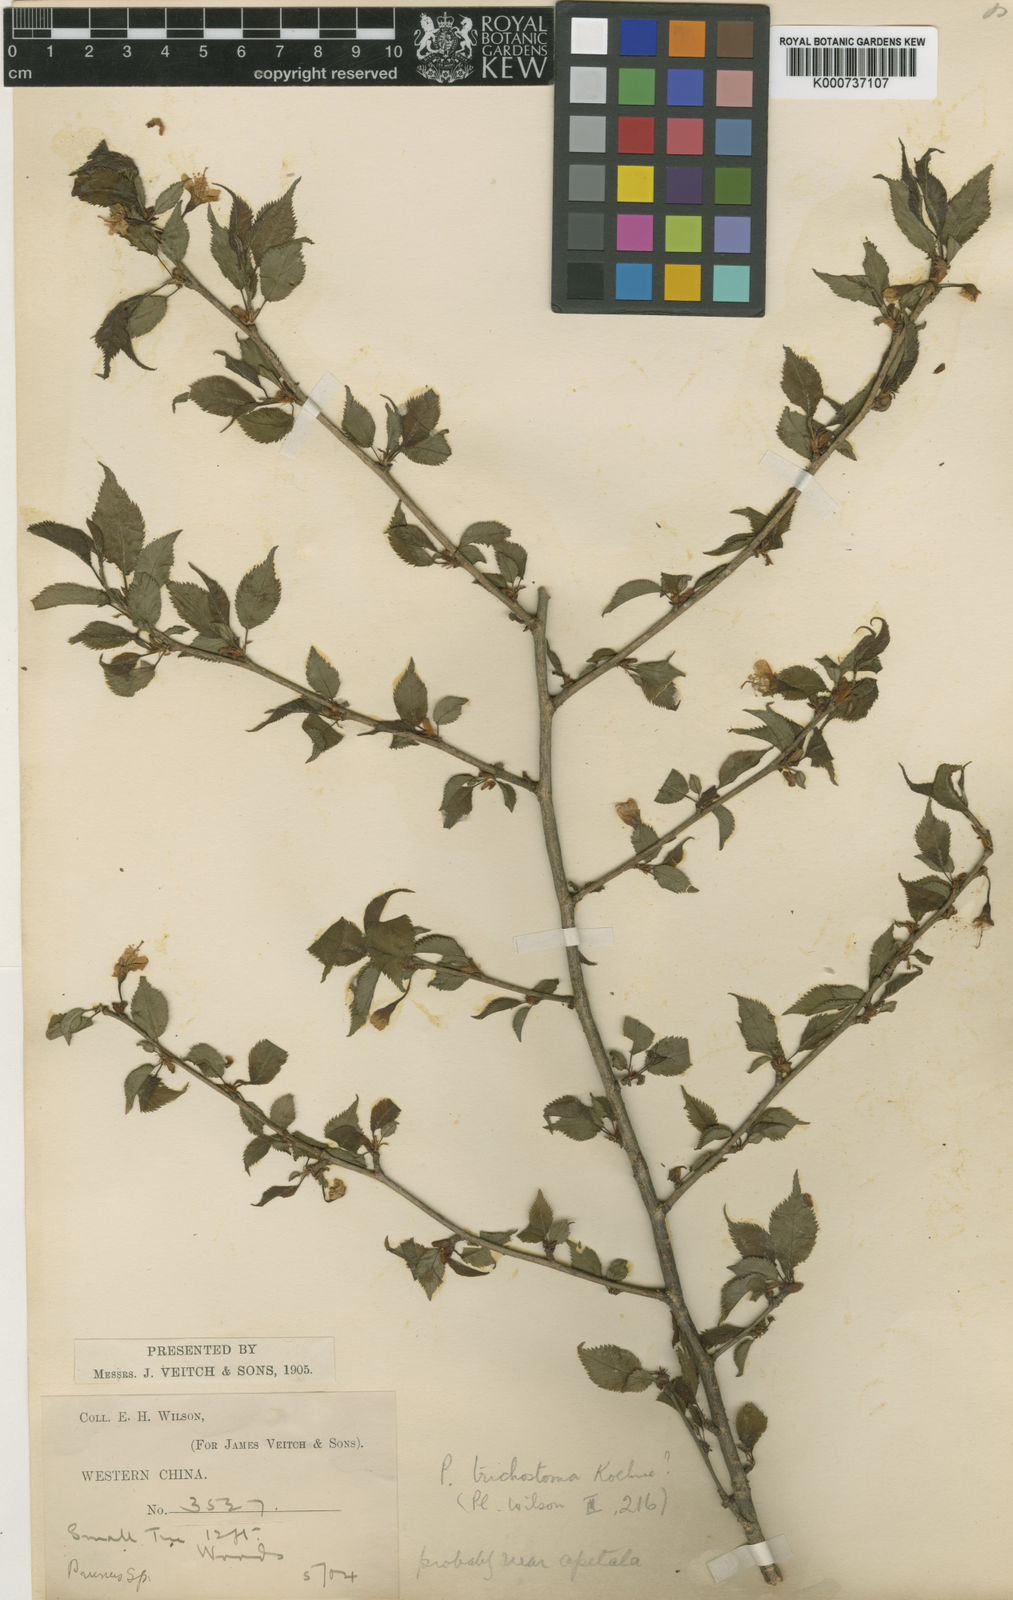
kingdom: Plantae
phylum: Tracheophyta
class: Magnoliopsida
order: Rosales
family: Rosaceae
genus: Prunus
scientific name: Prunus trichostoma
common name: Ribbed cherry
